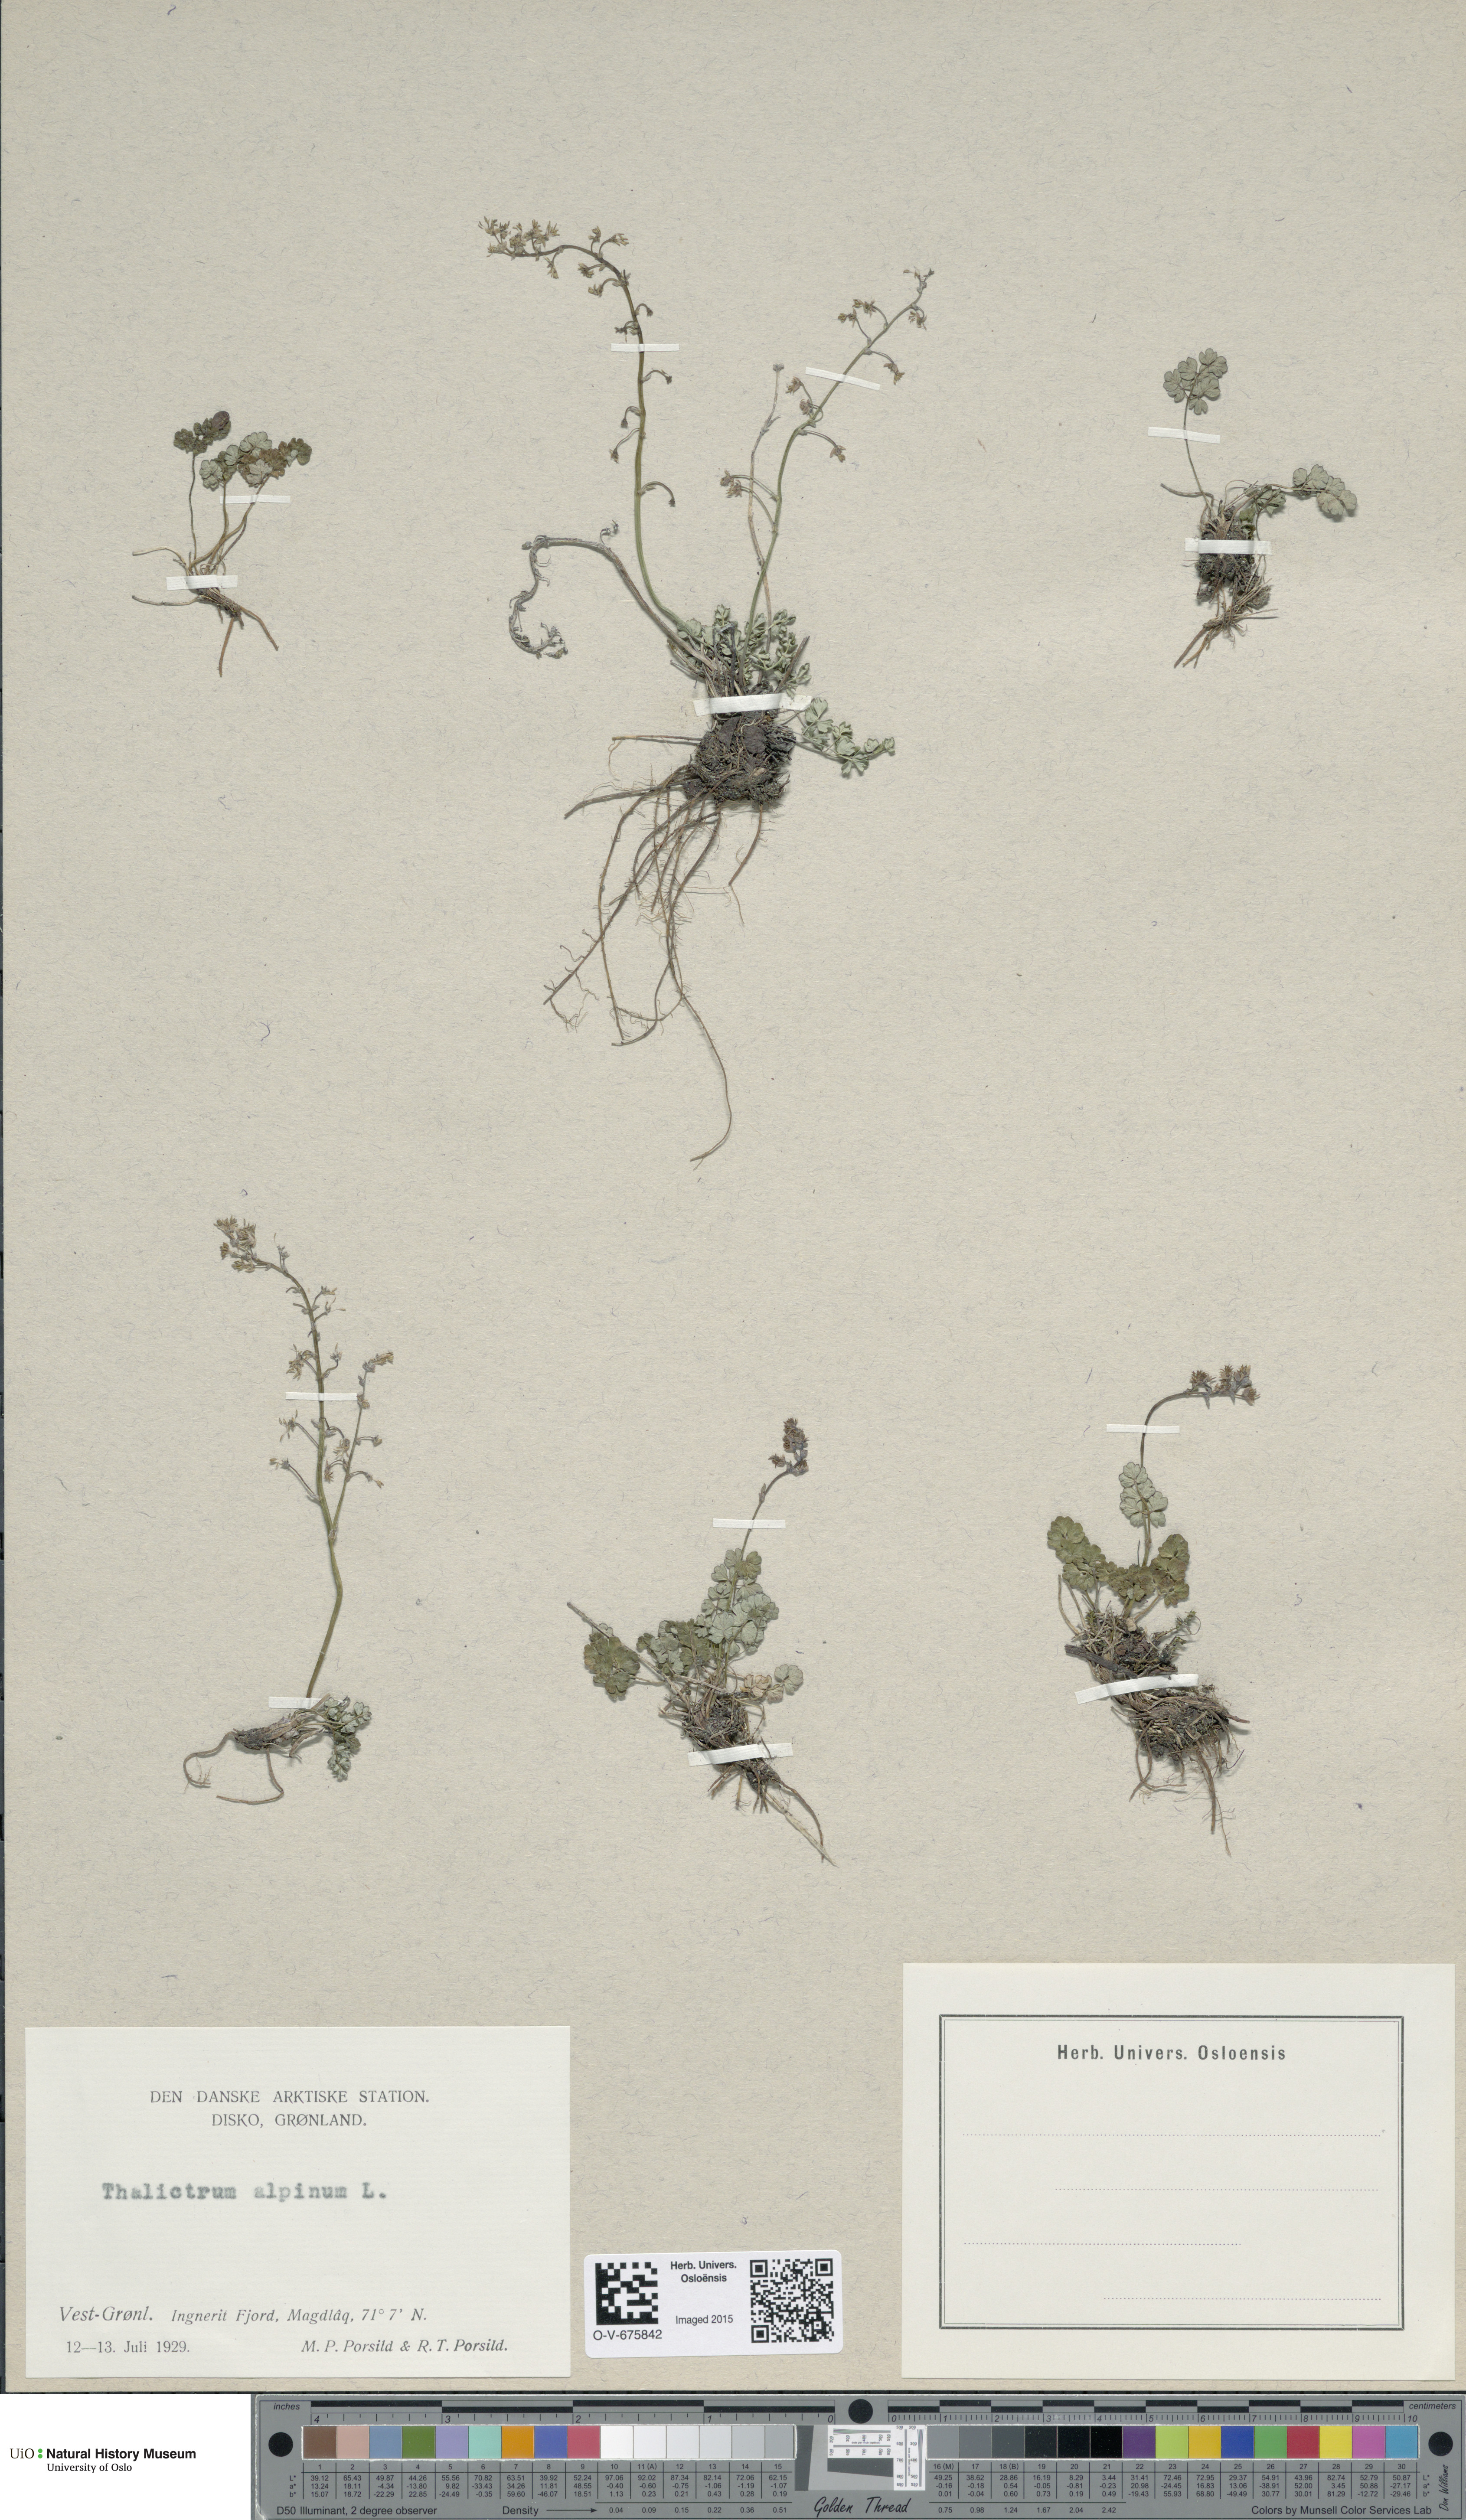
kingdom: Plantae
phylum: Tracheophyta
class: Magnoliopsida
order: Ranunculales
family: Ranunculaceae
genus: Thalictrum
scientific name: Thalictrum alpinum
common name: Alpine meadow-rue
